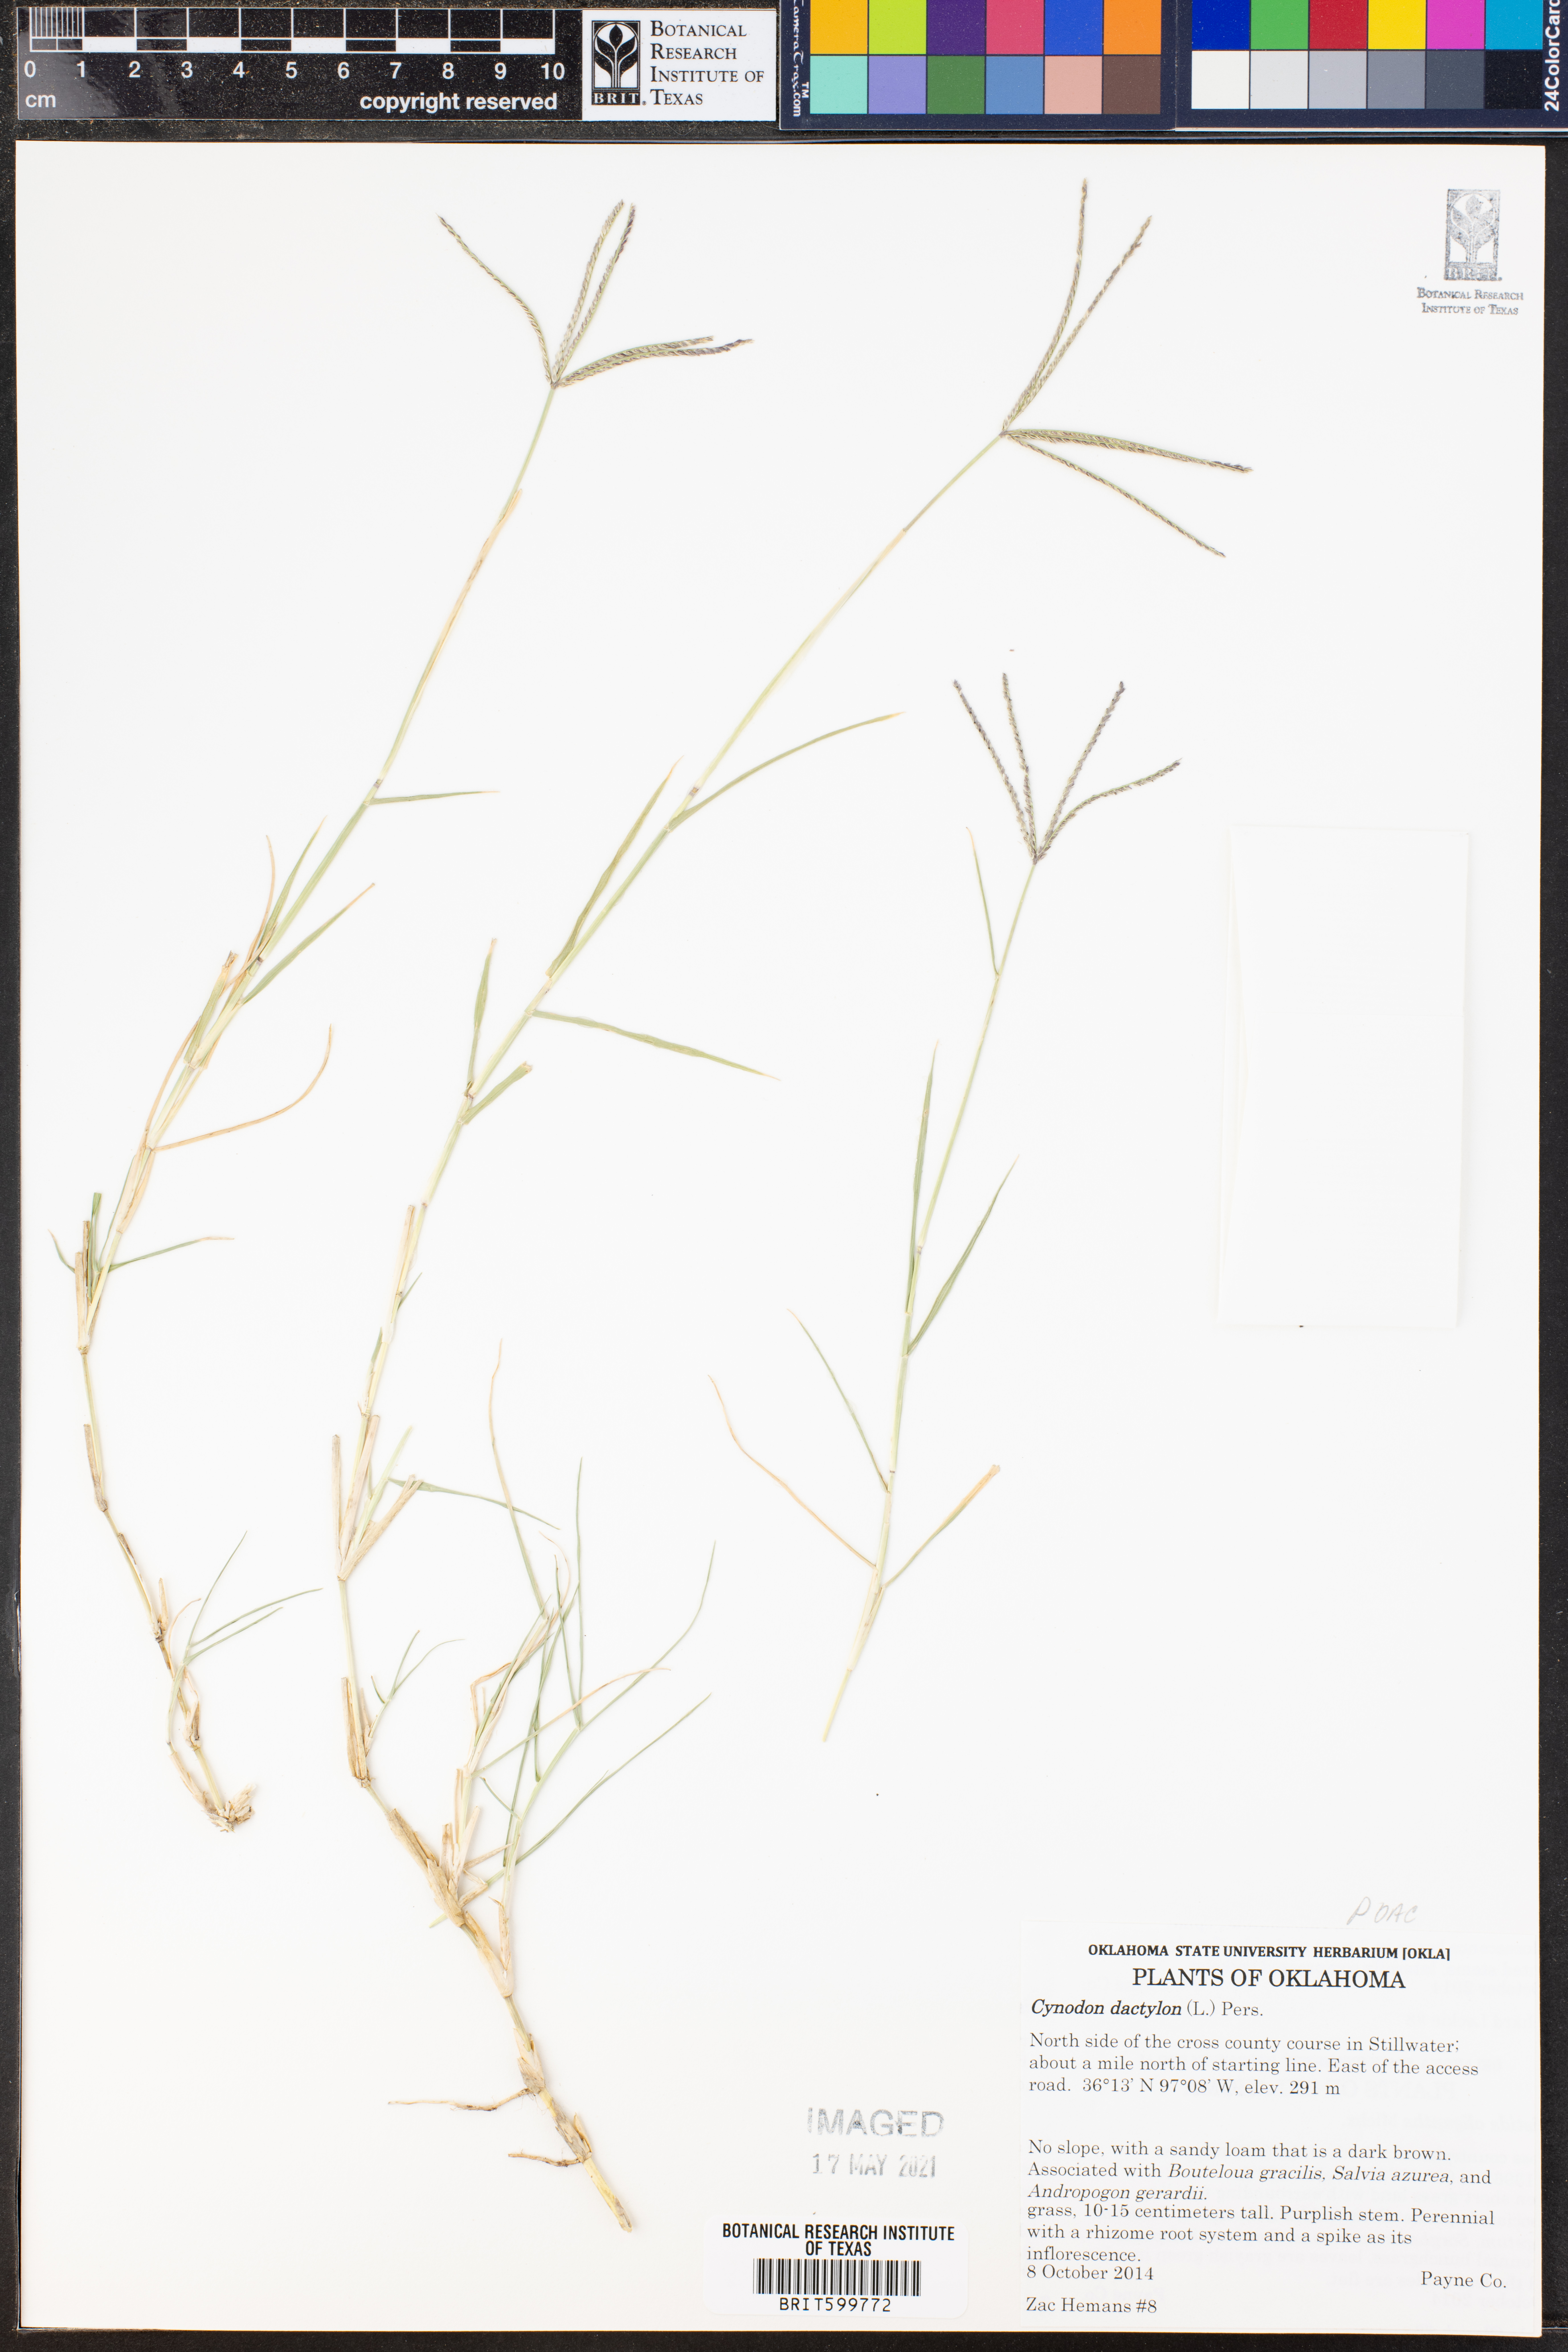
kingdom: Plantae
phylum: Tracheophyta
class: Liliopsida
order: Poales
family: Poaceae
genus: Cynodon
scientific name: Cynodon dactylon
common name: Bermuda grass
